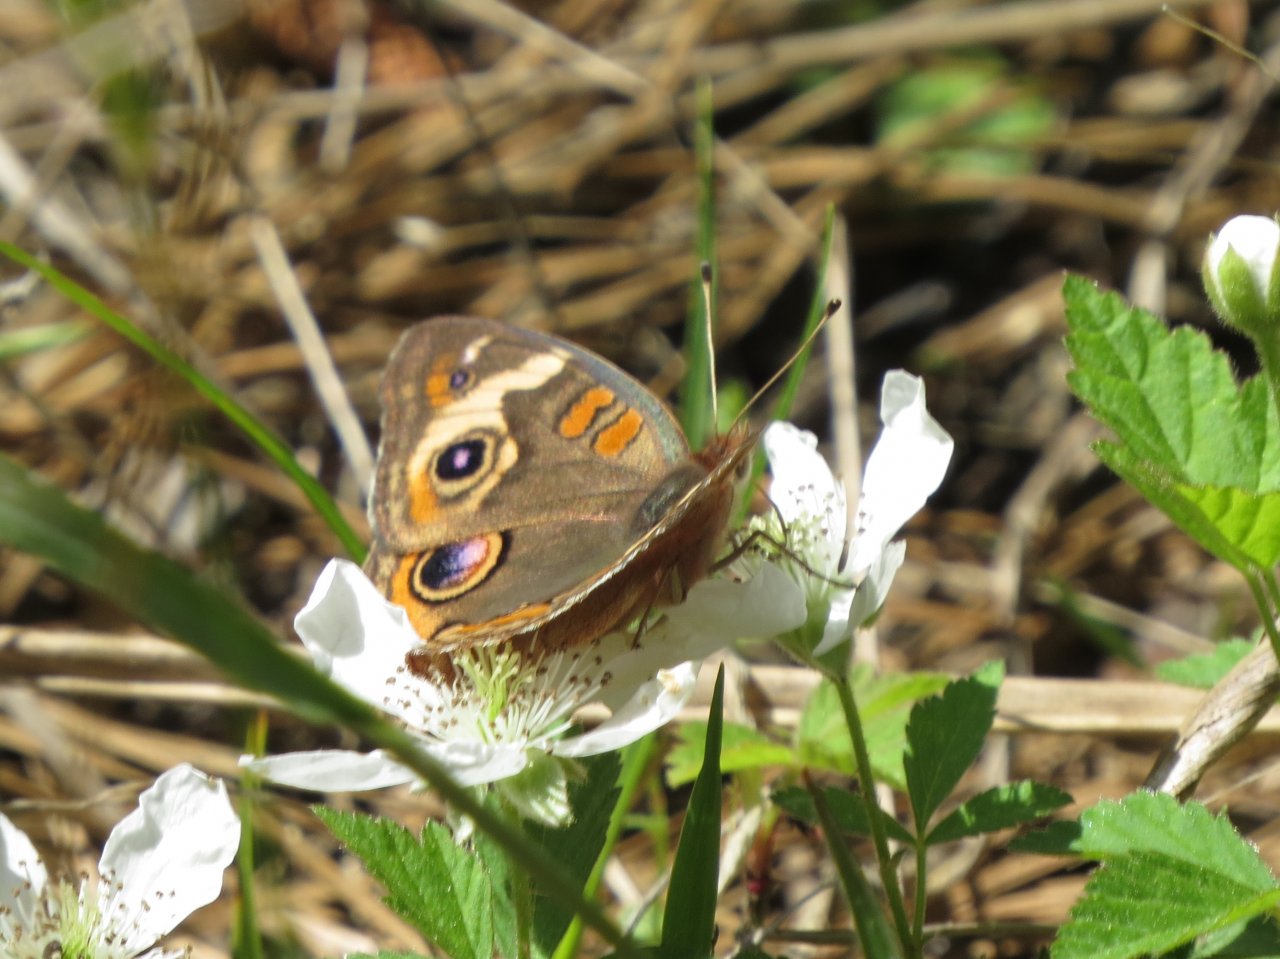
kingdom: Animalia
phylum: Arthropoda
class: Insecta
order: Lepidoptera
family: Nymphalidae
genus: Junonia
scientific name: Junonia coenia
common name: Common Buckeye
